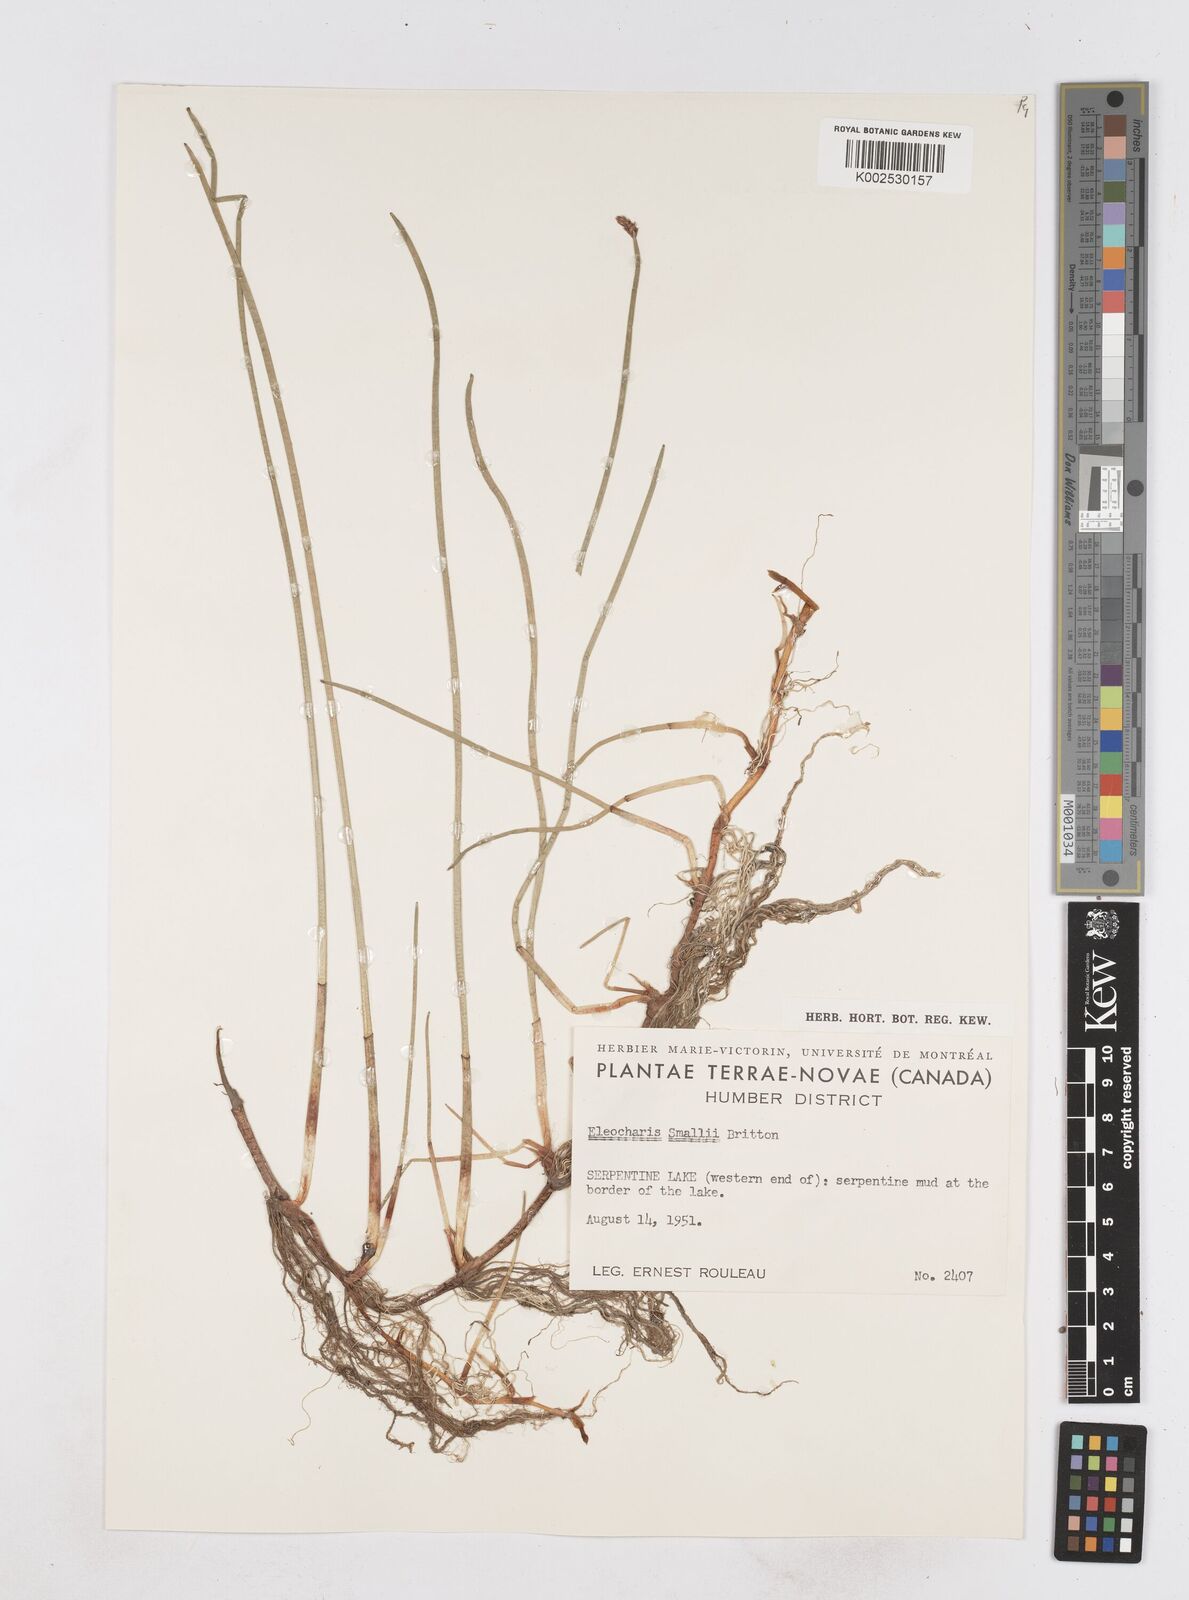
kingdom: Plantae
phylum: Tracheophyta
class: Liliopsida
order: Poales
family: Cyperaceae
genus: Eleocharis
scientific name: Eleocharis palustris
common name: Common spike-rush
